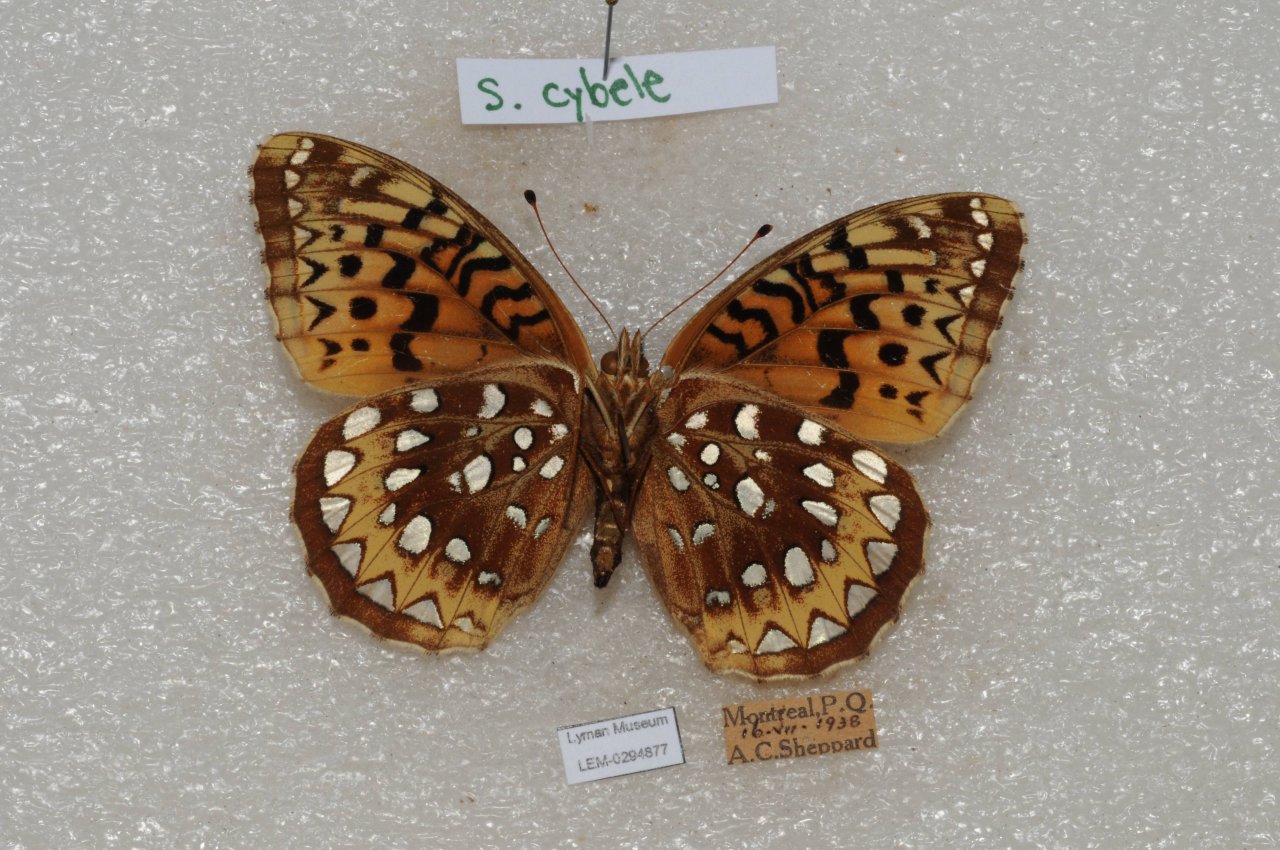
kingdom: Animalia
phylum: Arthropoda
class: Insecta
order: Lepidoptera
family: Nymphalidae
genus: Speyeria
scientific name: Speyeria cybele
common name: Great Spangled Fritillary
